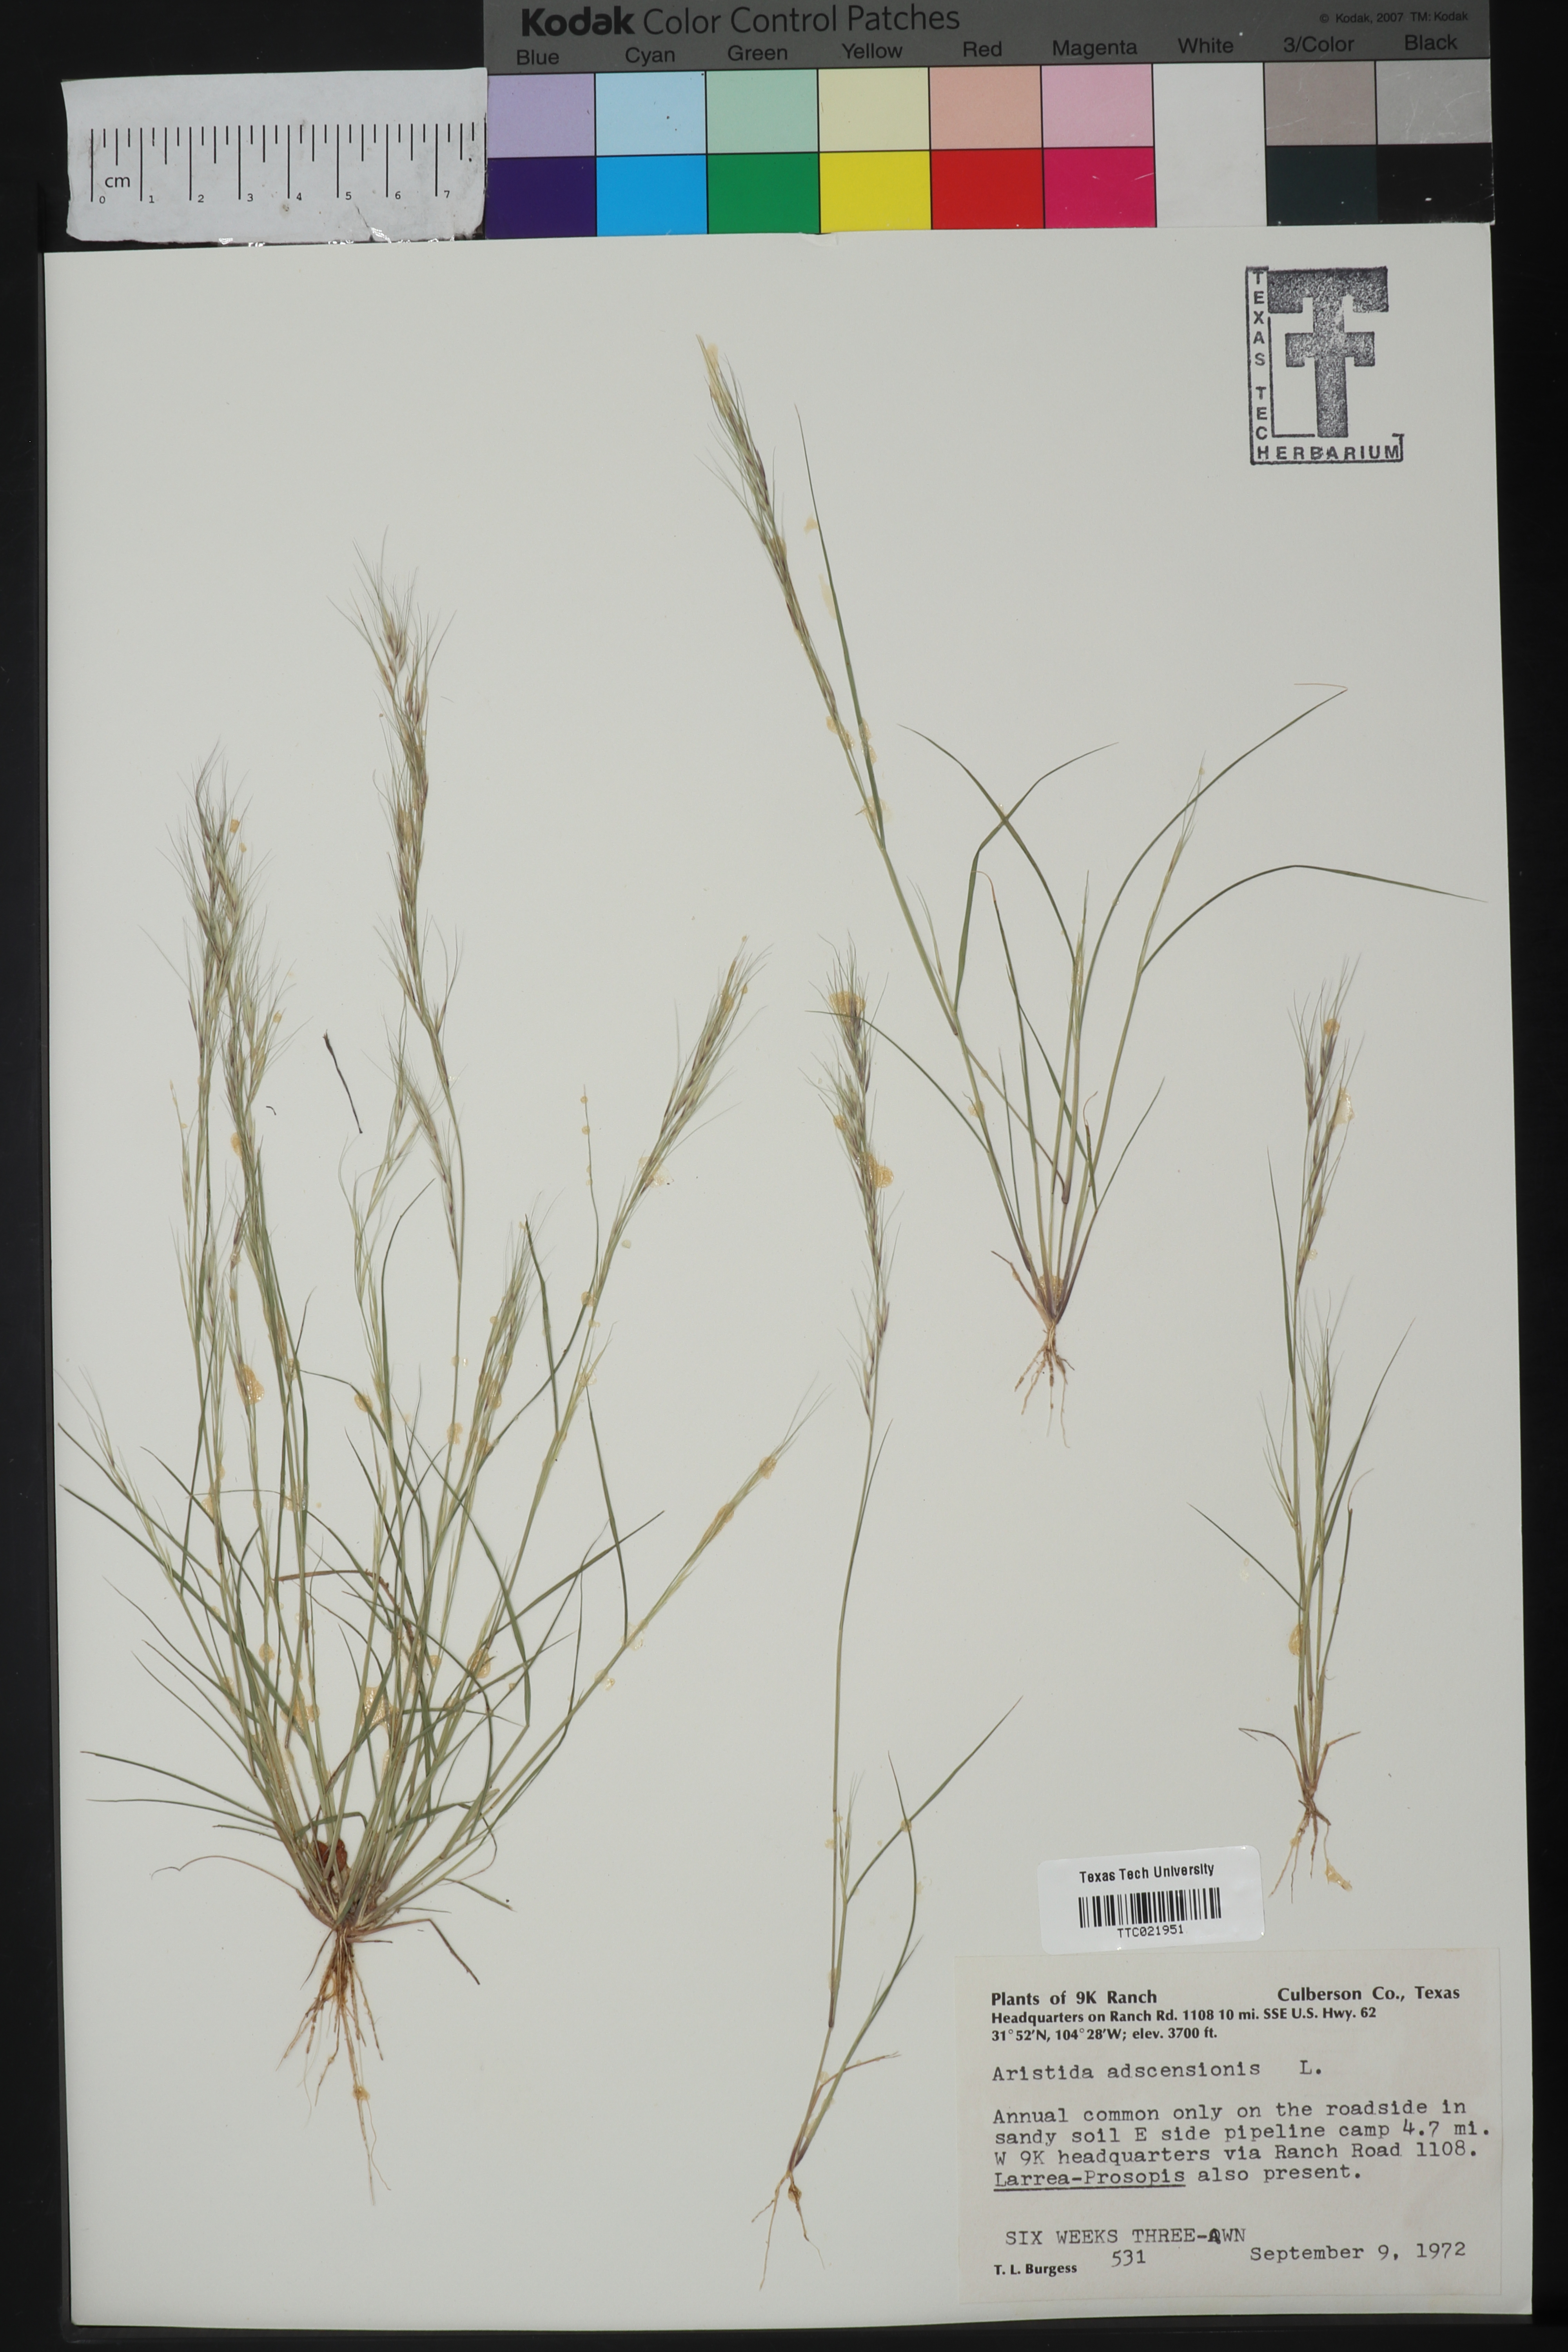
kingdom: Plantae
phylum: Tracheophyta
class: Liliopsida
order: Poales
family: Poaceae
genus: Aristida
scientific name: Aristida adscensionis
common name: Sixweeks threeawn
